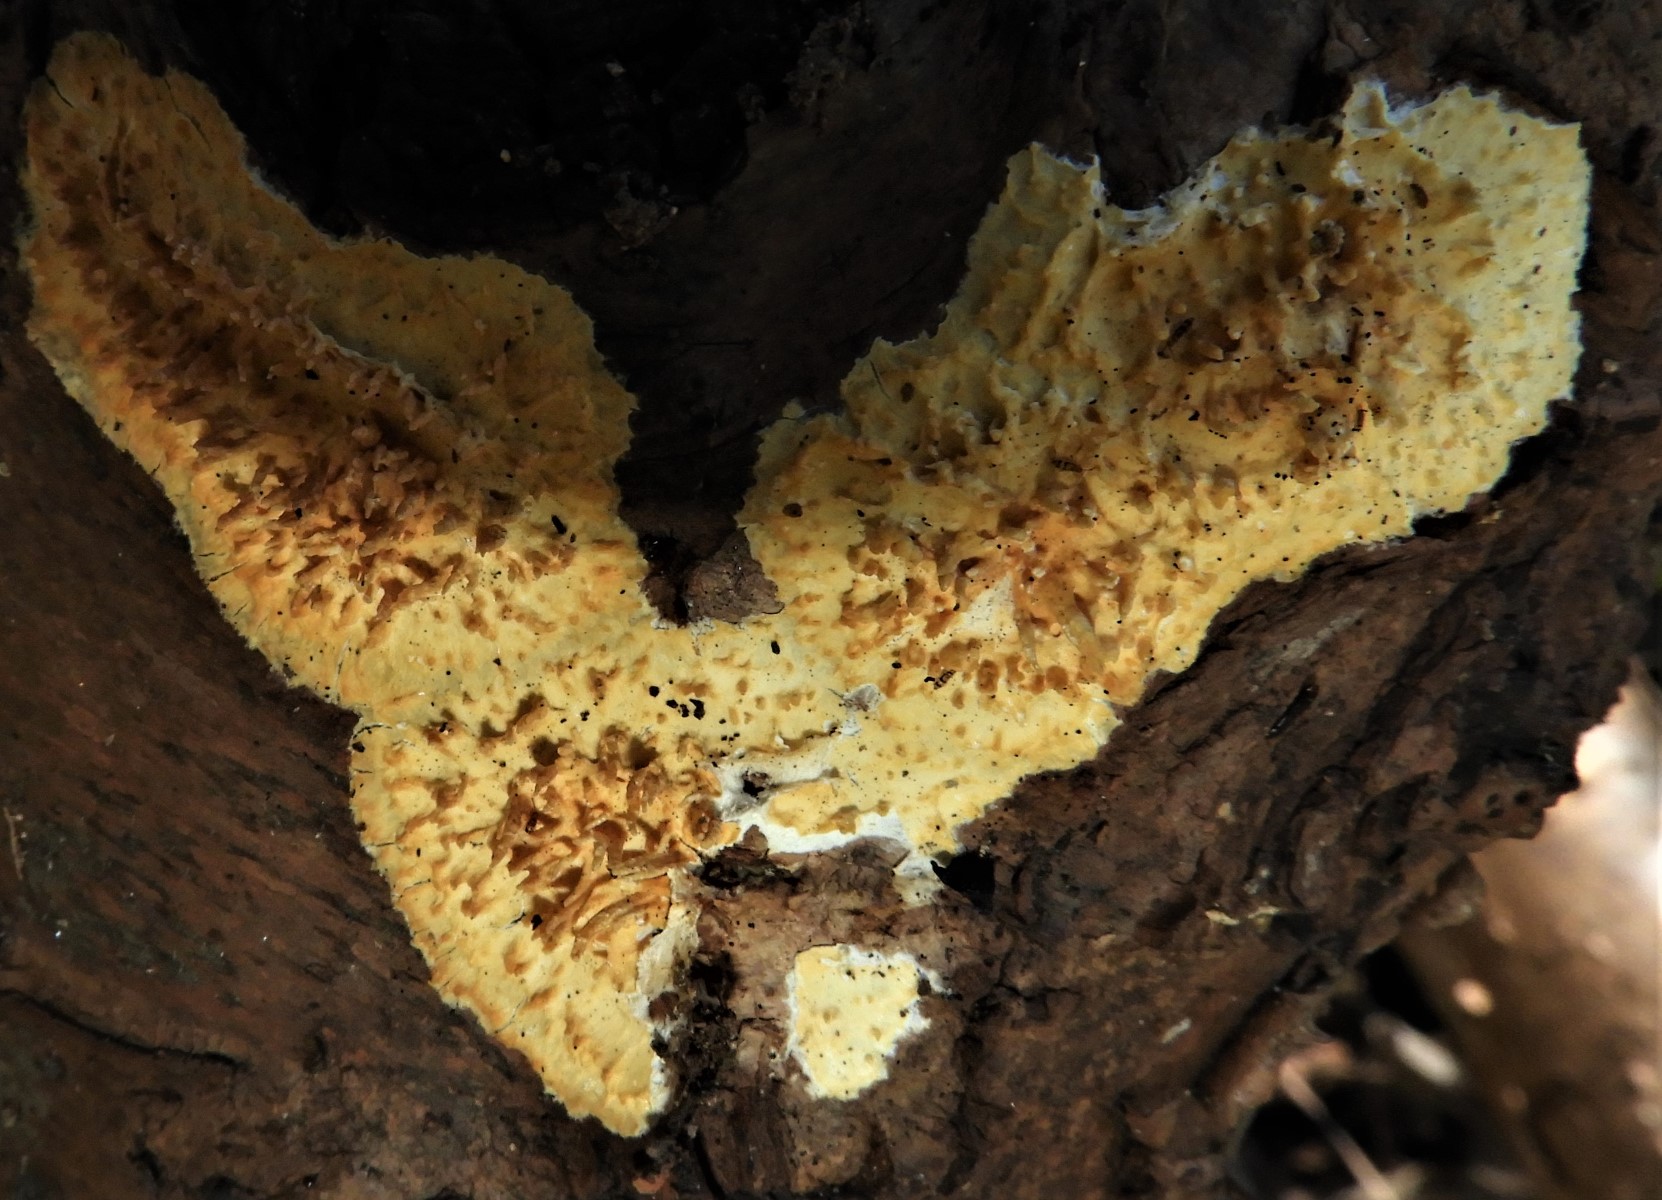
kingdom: Fungi
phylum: Basidiomycota
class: Agaricomycetes
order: Hymenochaetales
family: Schizoporaceae
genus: Xylodon
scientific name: Xylodon radula
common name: grovtandet kalkskind
